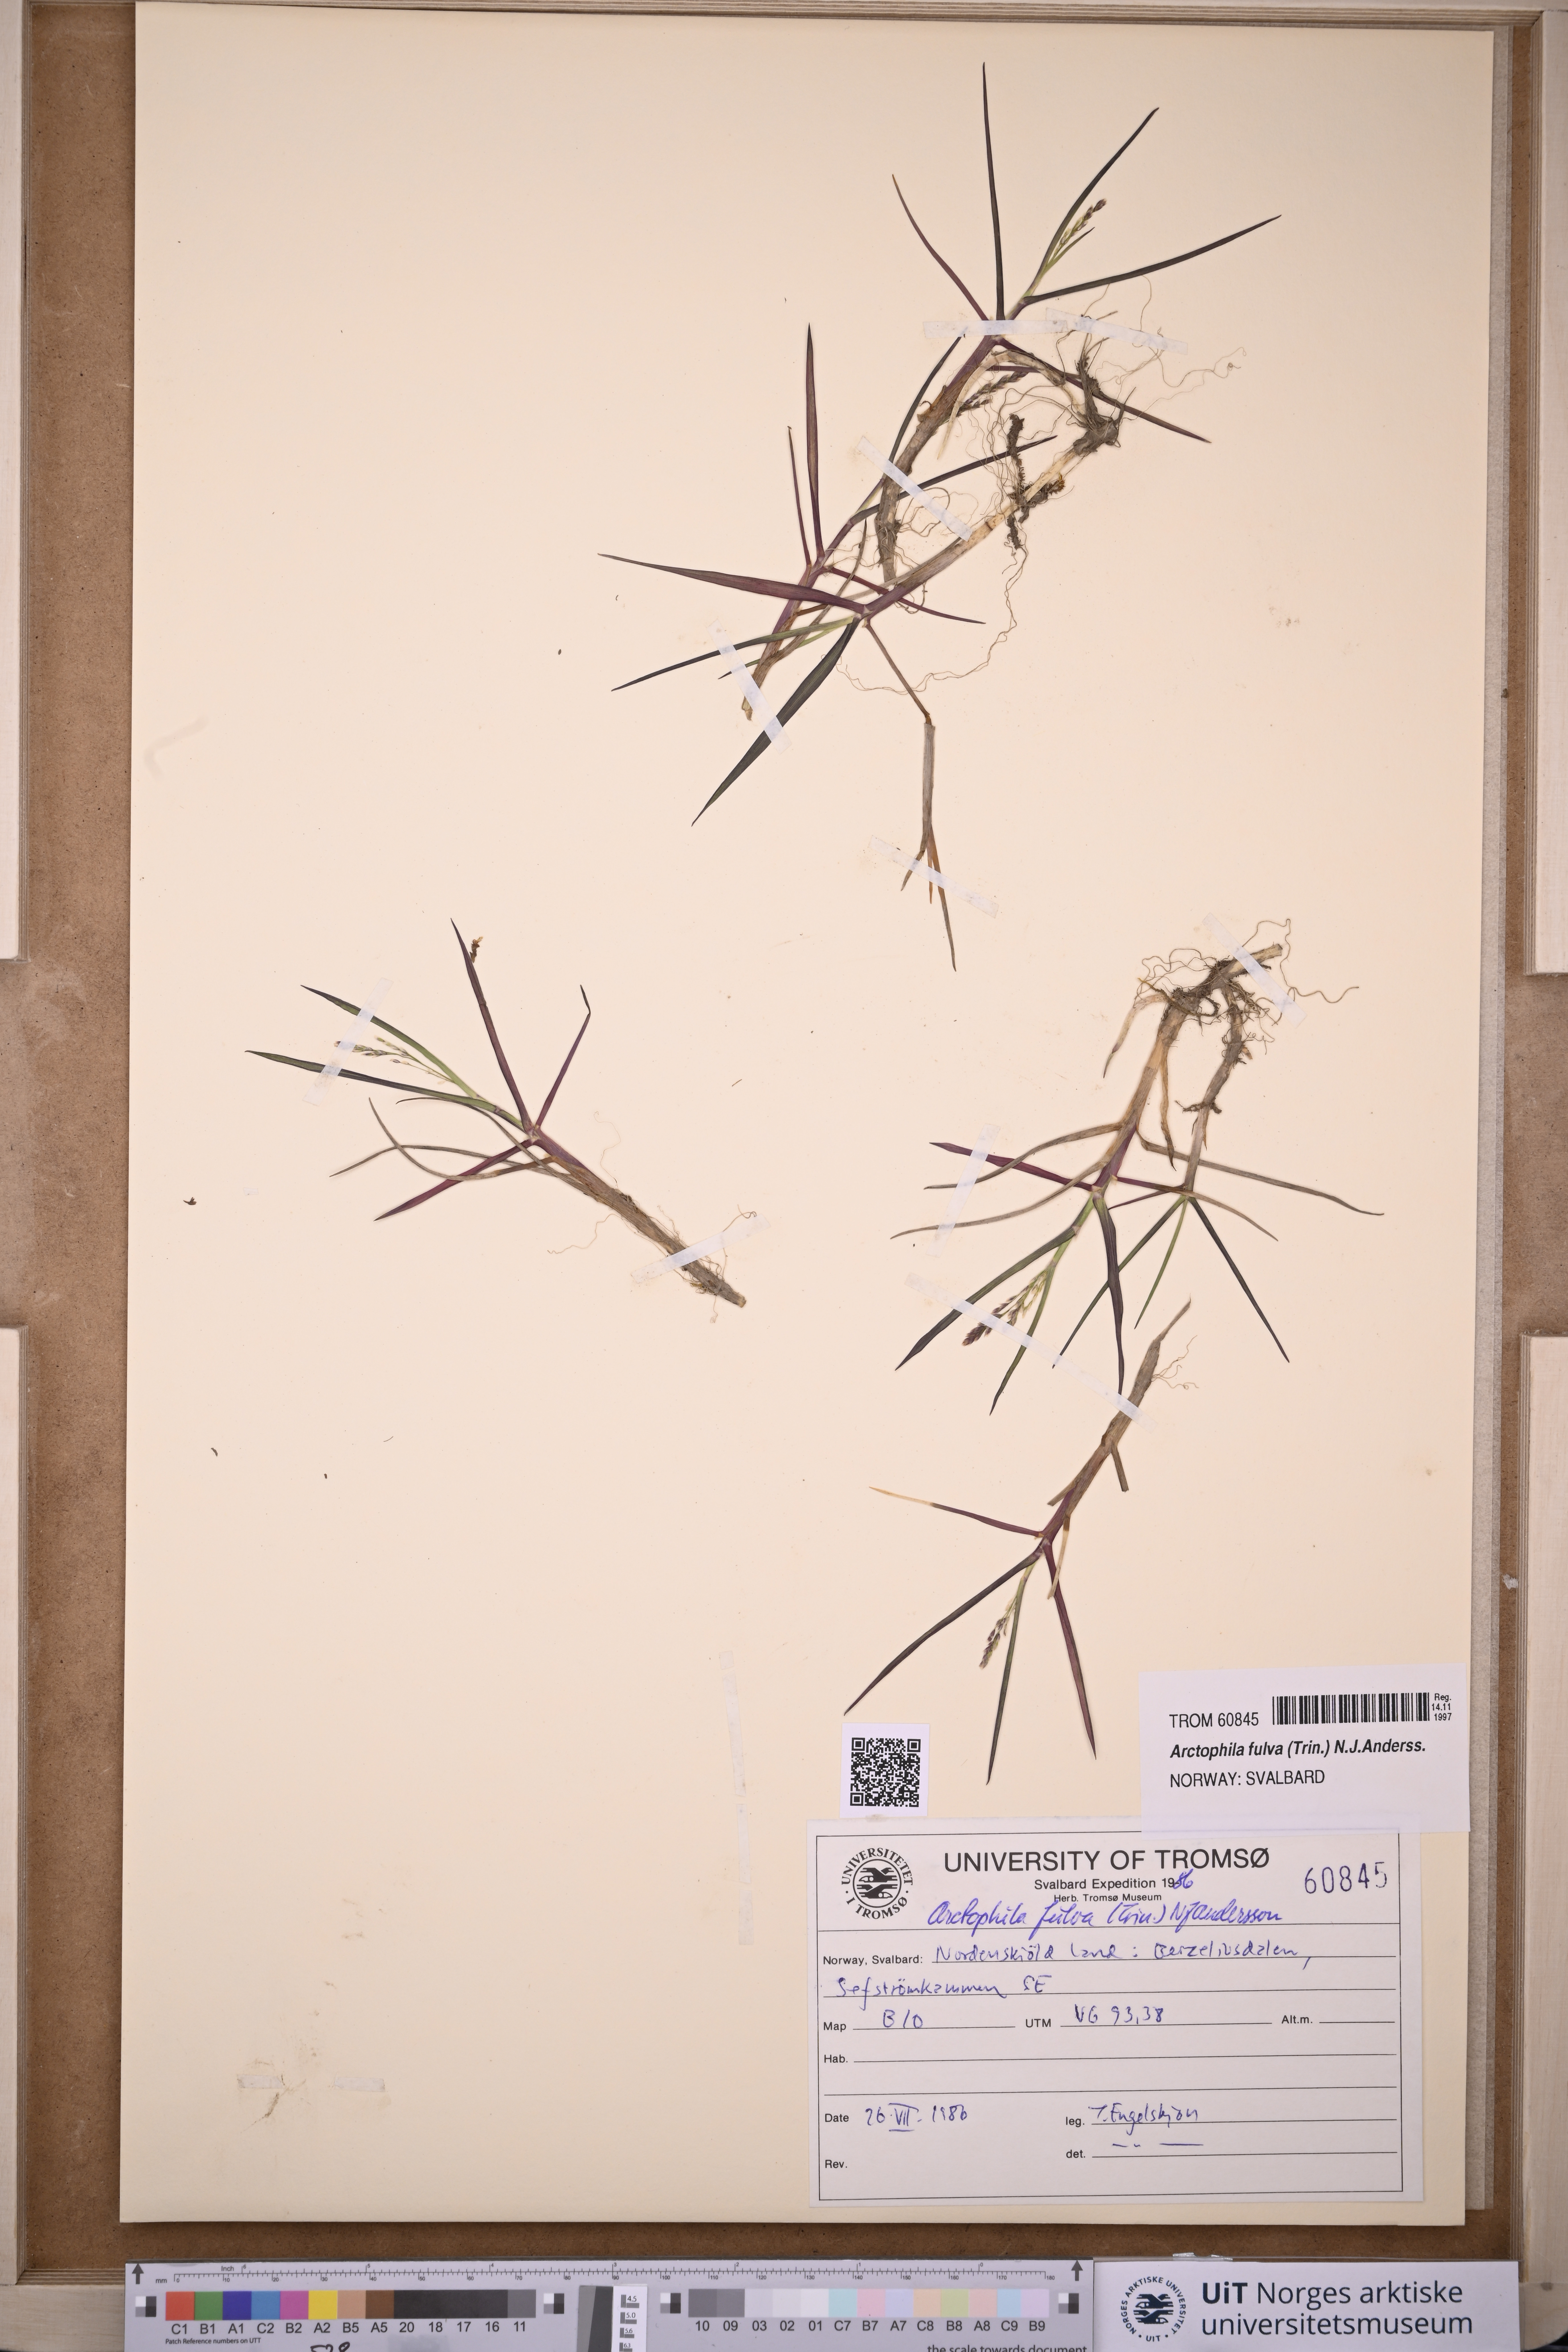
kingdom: Plantae
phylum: Tracheophyta
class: Liliopsida
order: Poales
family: Poaceae
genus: Dupontia
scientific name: Dupontia fulva
